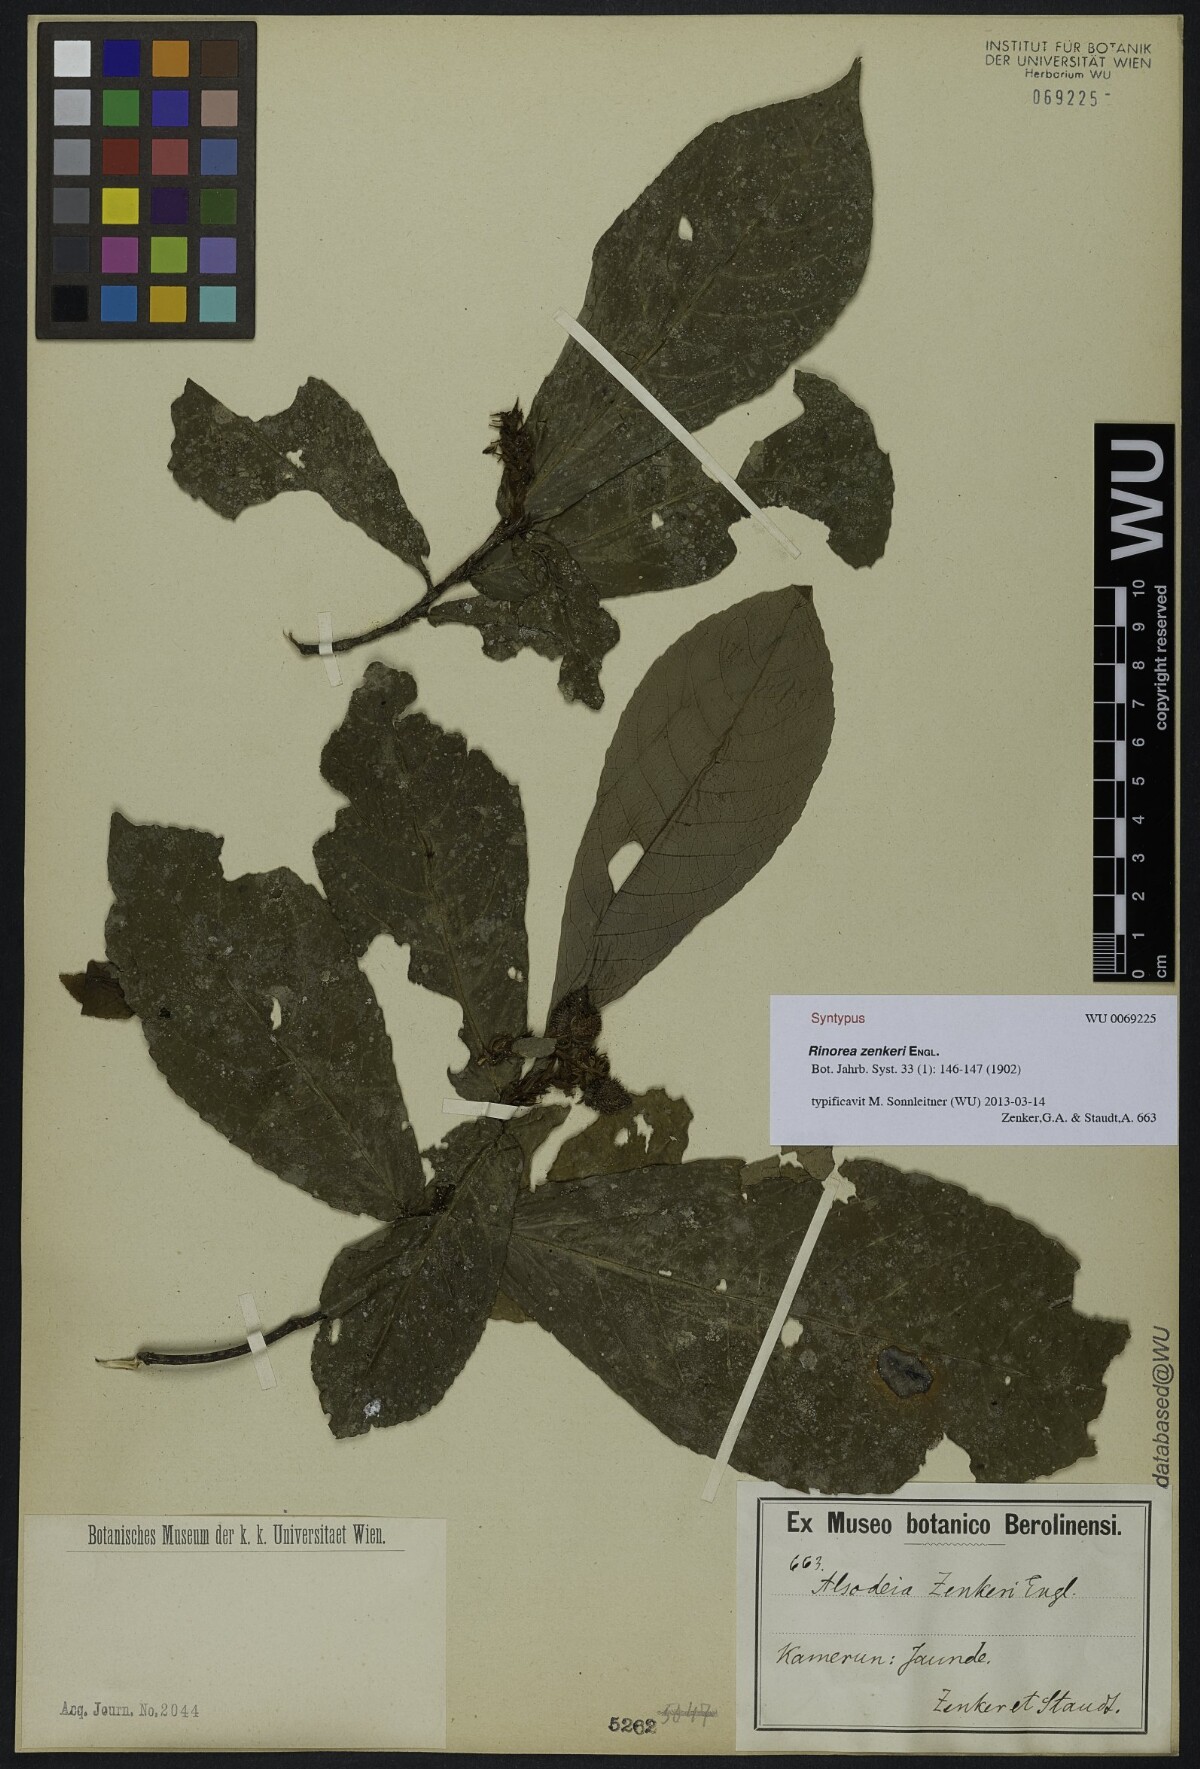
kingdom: Plantae
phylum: Tracheophyta
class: Magnoliopsida
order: Malpighiales
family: Violaceae
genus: Rinorea
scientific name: Rinorea zenkeri
